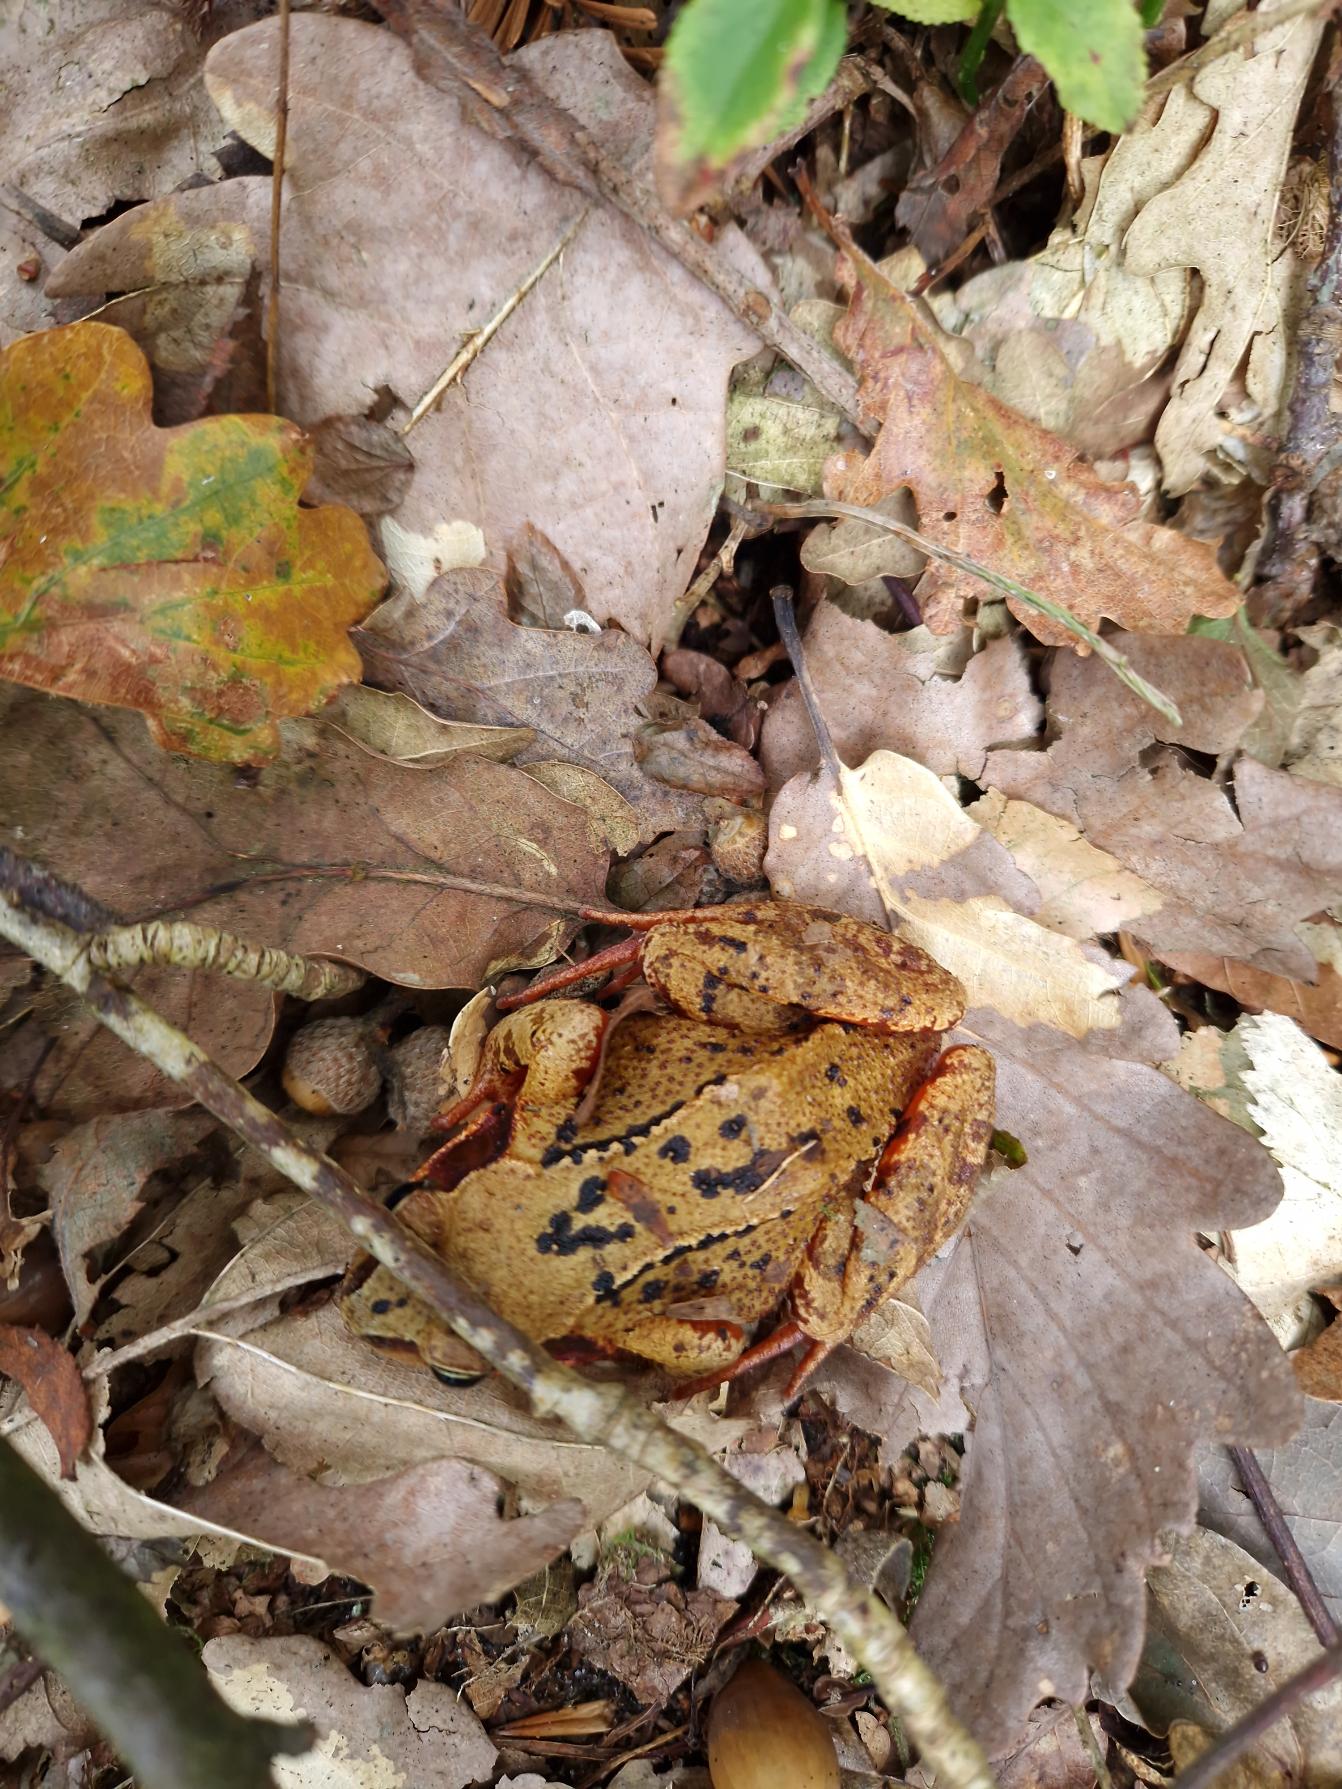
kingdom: Animalia
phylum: Chordata
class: Amphibia
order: Anura
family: Ranidae
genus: Rana
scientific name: Rana temporaria
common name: Butsnudet frø
